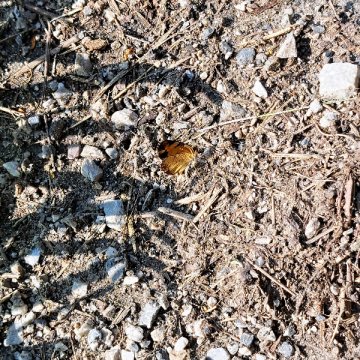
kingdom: Animalia
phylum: Arthropoda
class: Insecta
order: Lepidoptera
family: Nymphalidae
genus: Phyciodes
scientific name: Phyciodes tharos
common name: Northern Crescent
